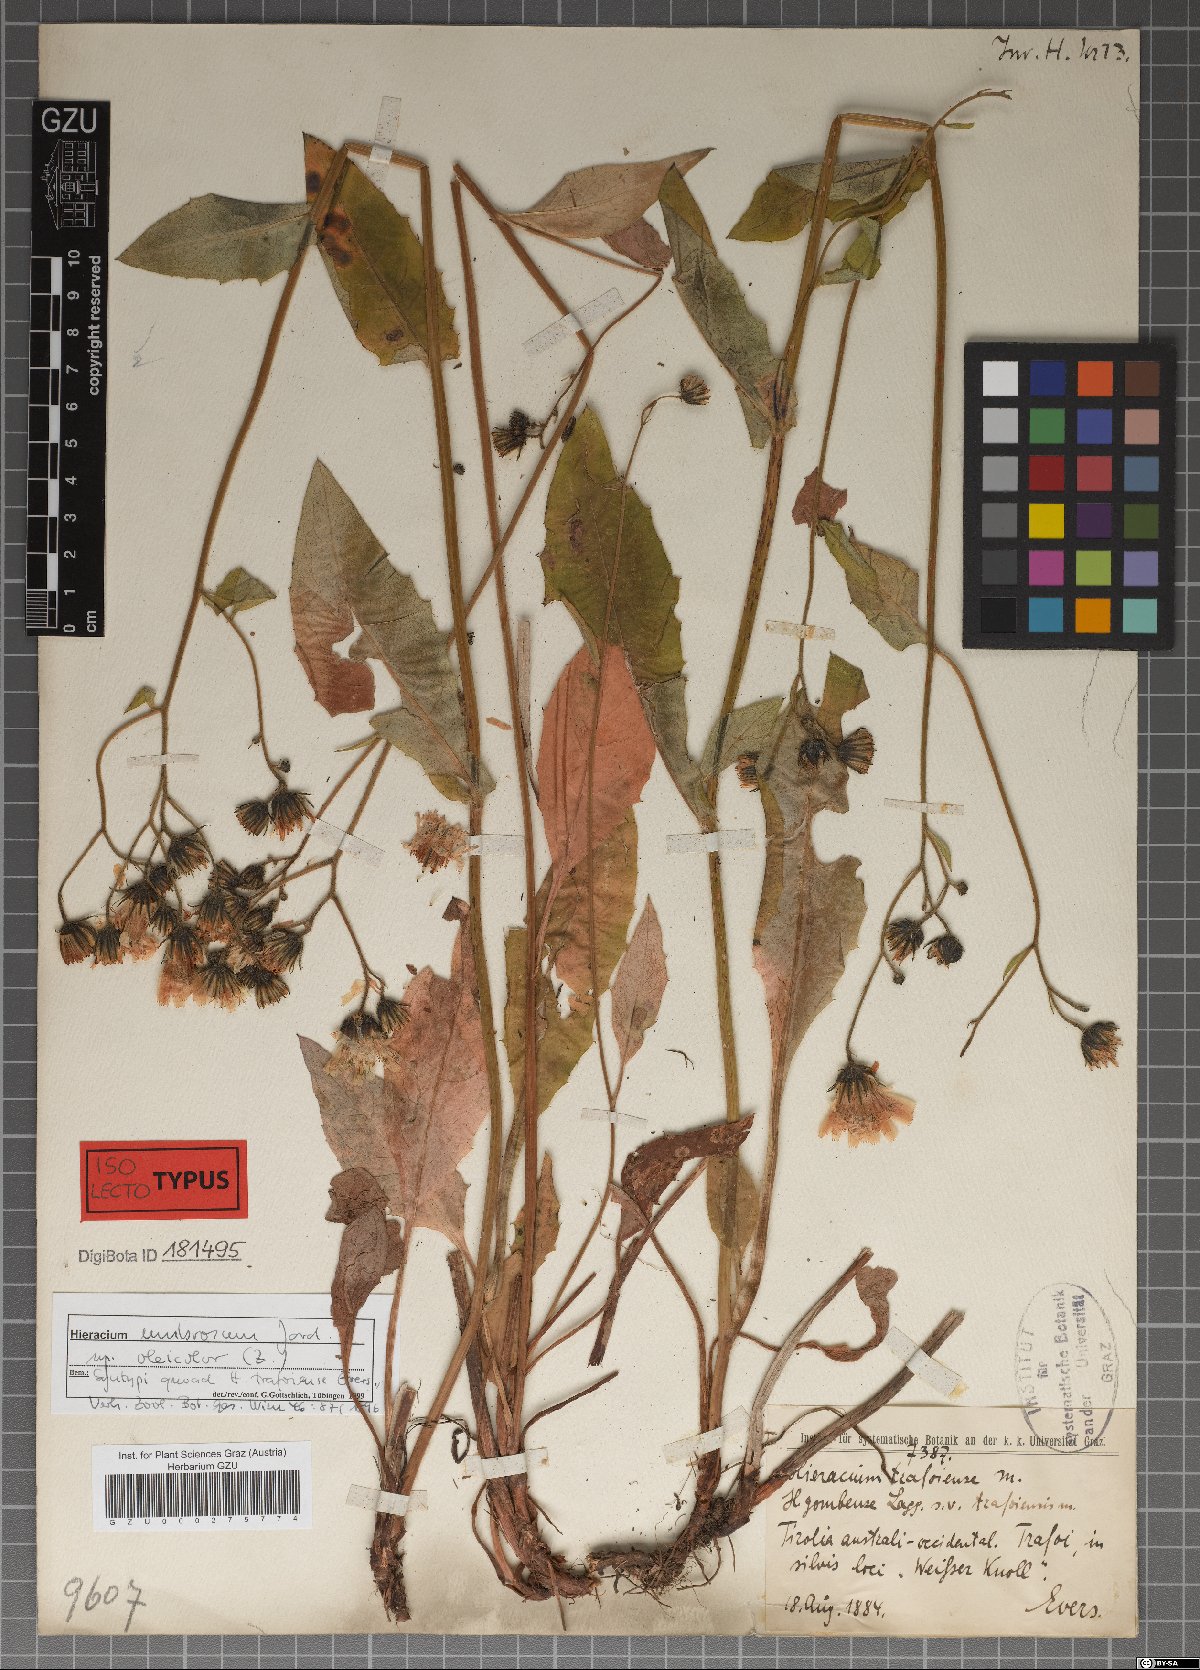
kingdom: Plantae
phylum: Tracheophyta
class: Magnoliopsida
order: Asterales
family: Asteraceae
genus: Hieracium
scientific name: Hieracium trafoiense
